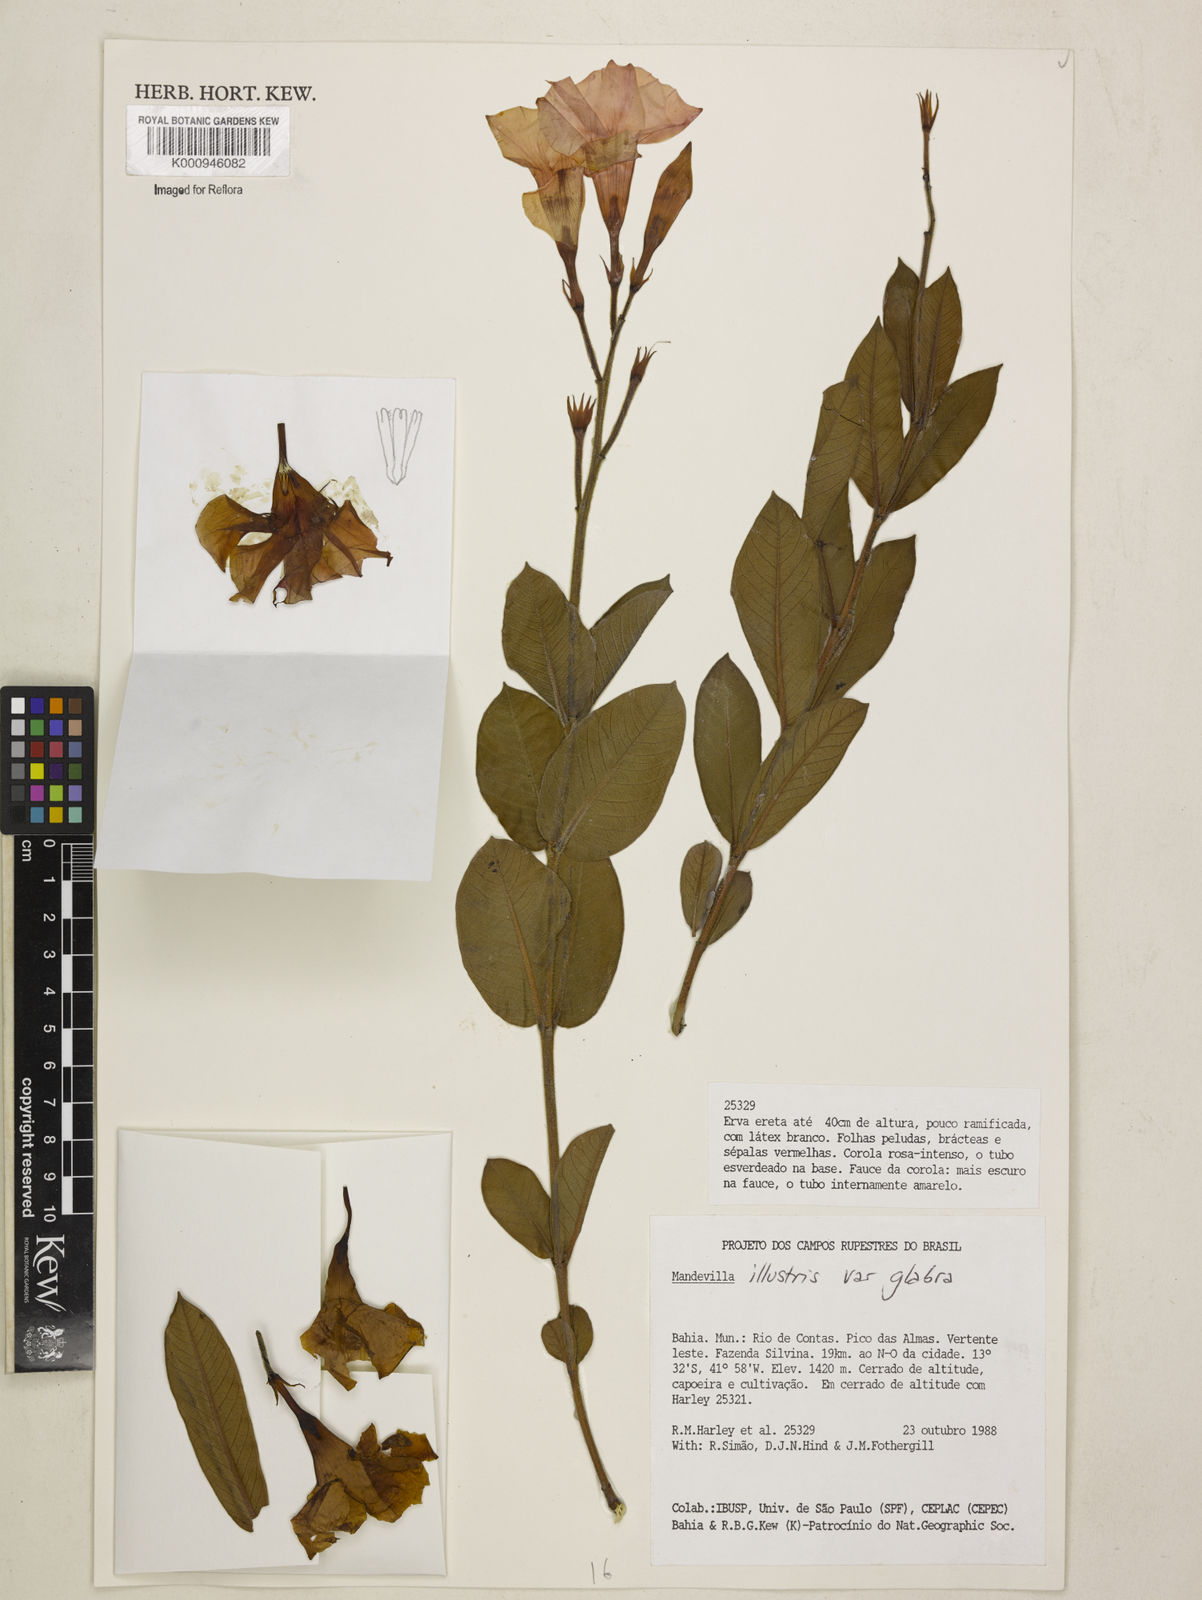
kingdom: Plantae
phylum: Tracheophyta
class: Magnoliopsida
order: Gentianales
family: Apocynaceae
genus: Mandevilla
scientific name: Mandevilla
